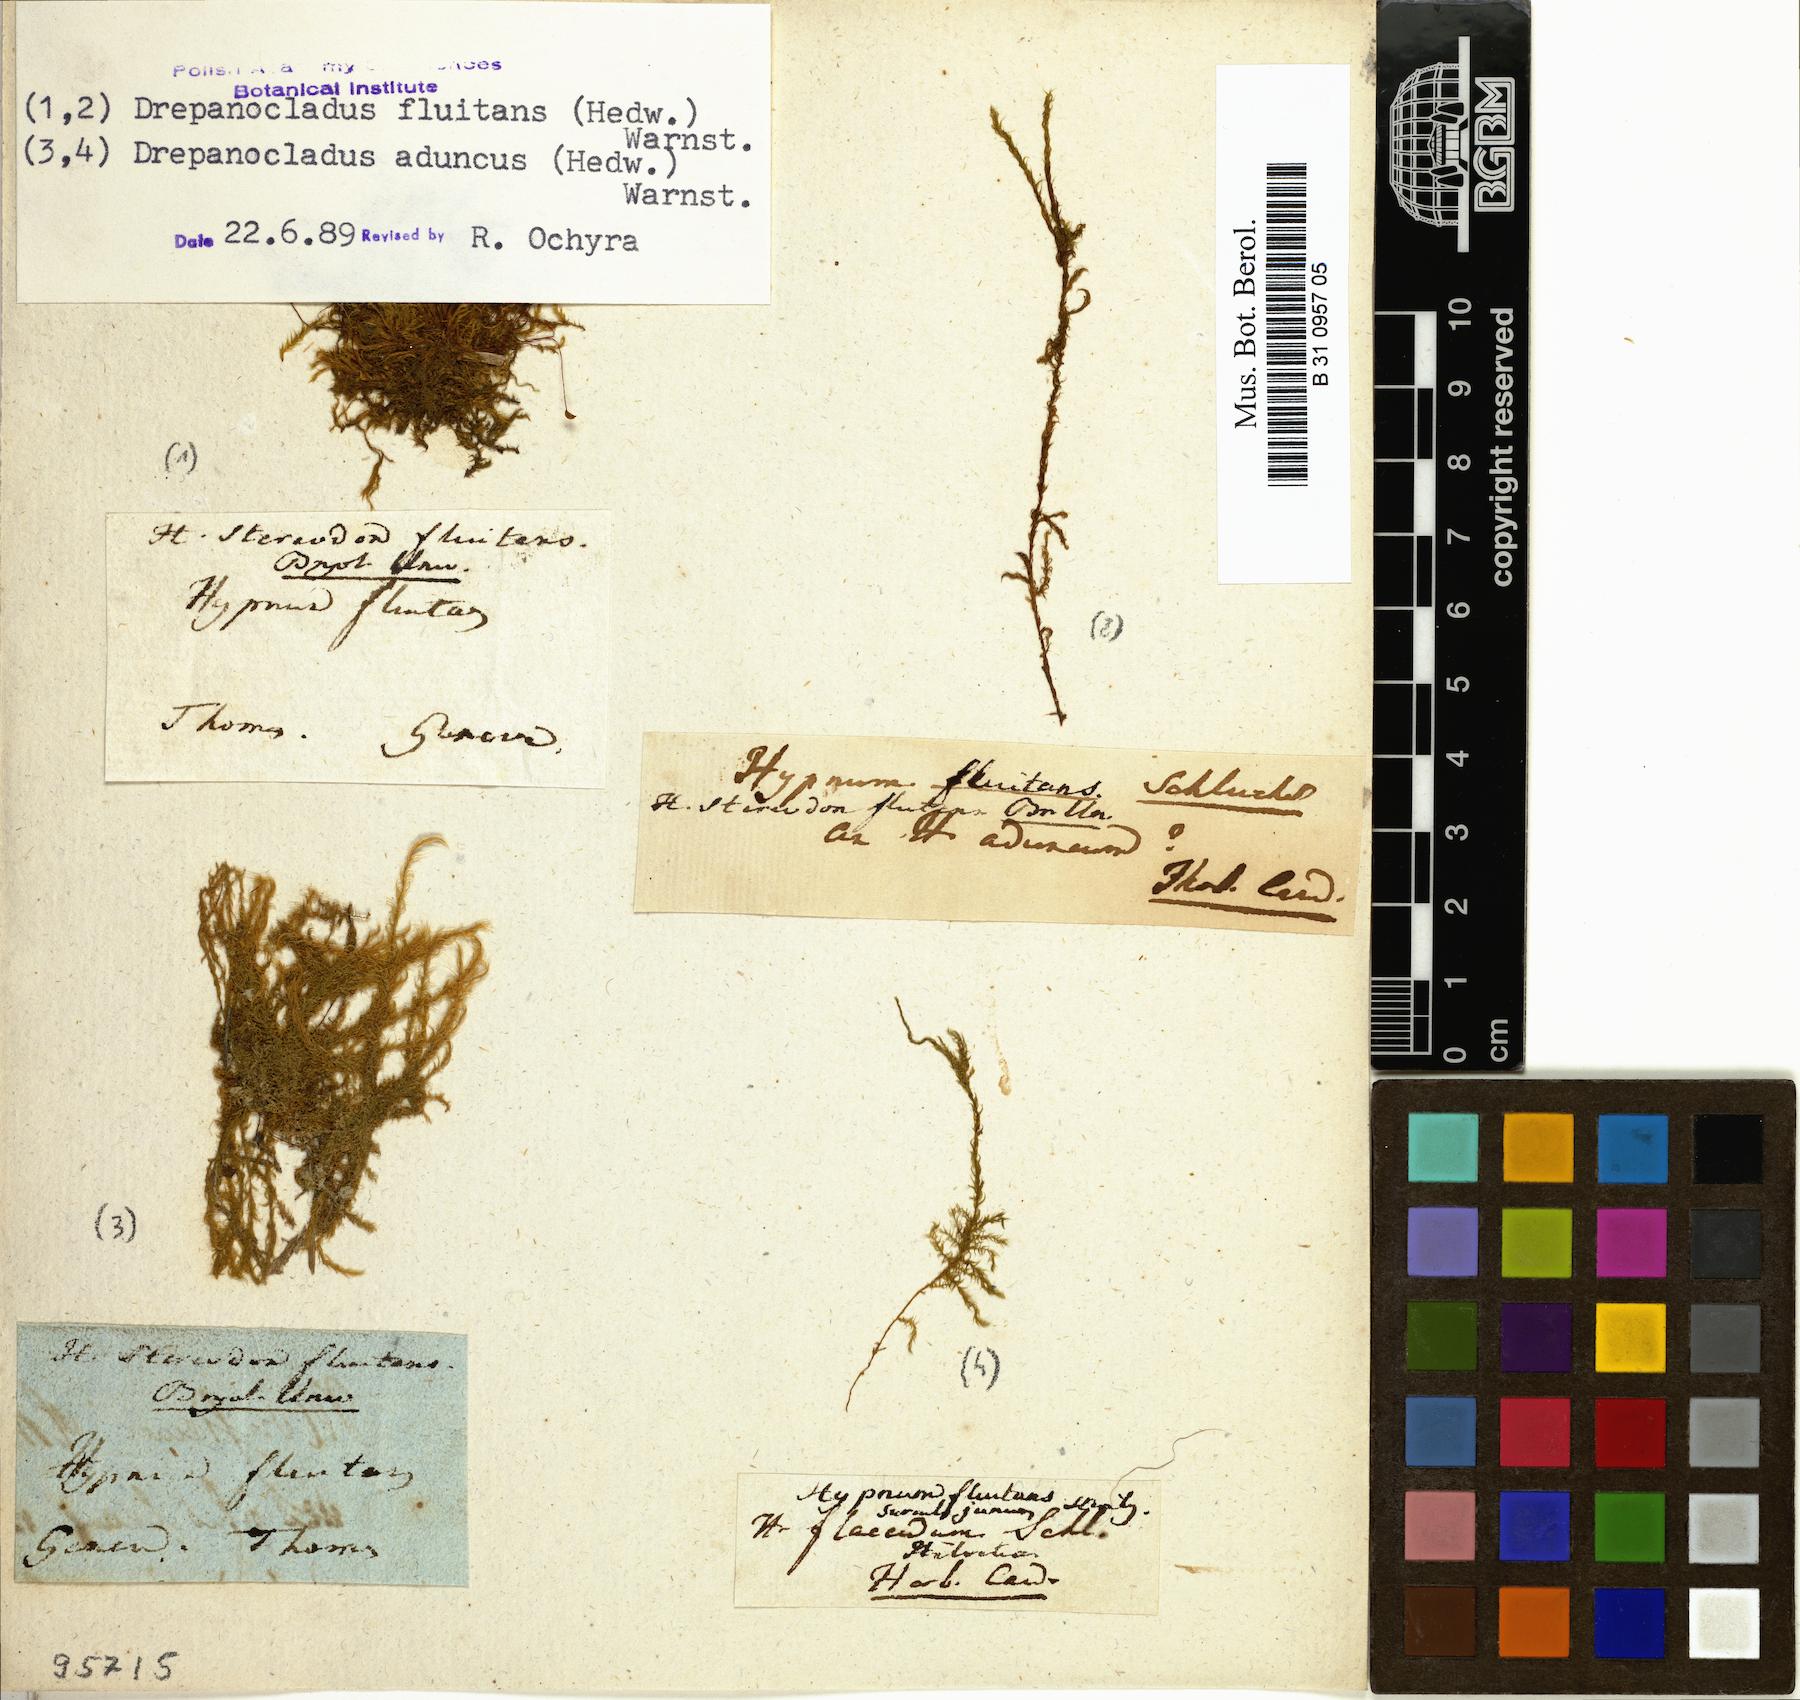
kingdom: Plantae
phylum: Bryophyta
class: Bryopsida
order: Hypnales
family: Calliergonaceae
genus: Warnstorfia
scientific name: Warnstorfia fluitans
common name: Floating hook moss
